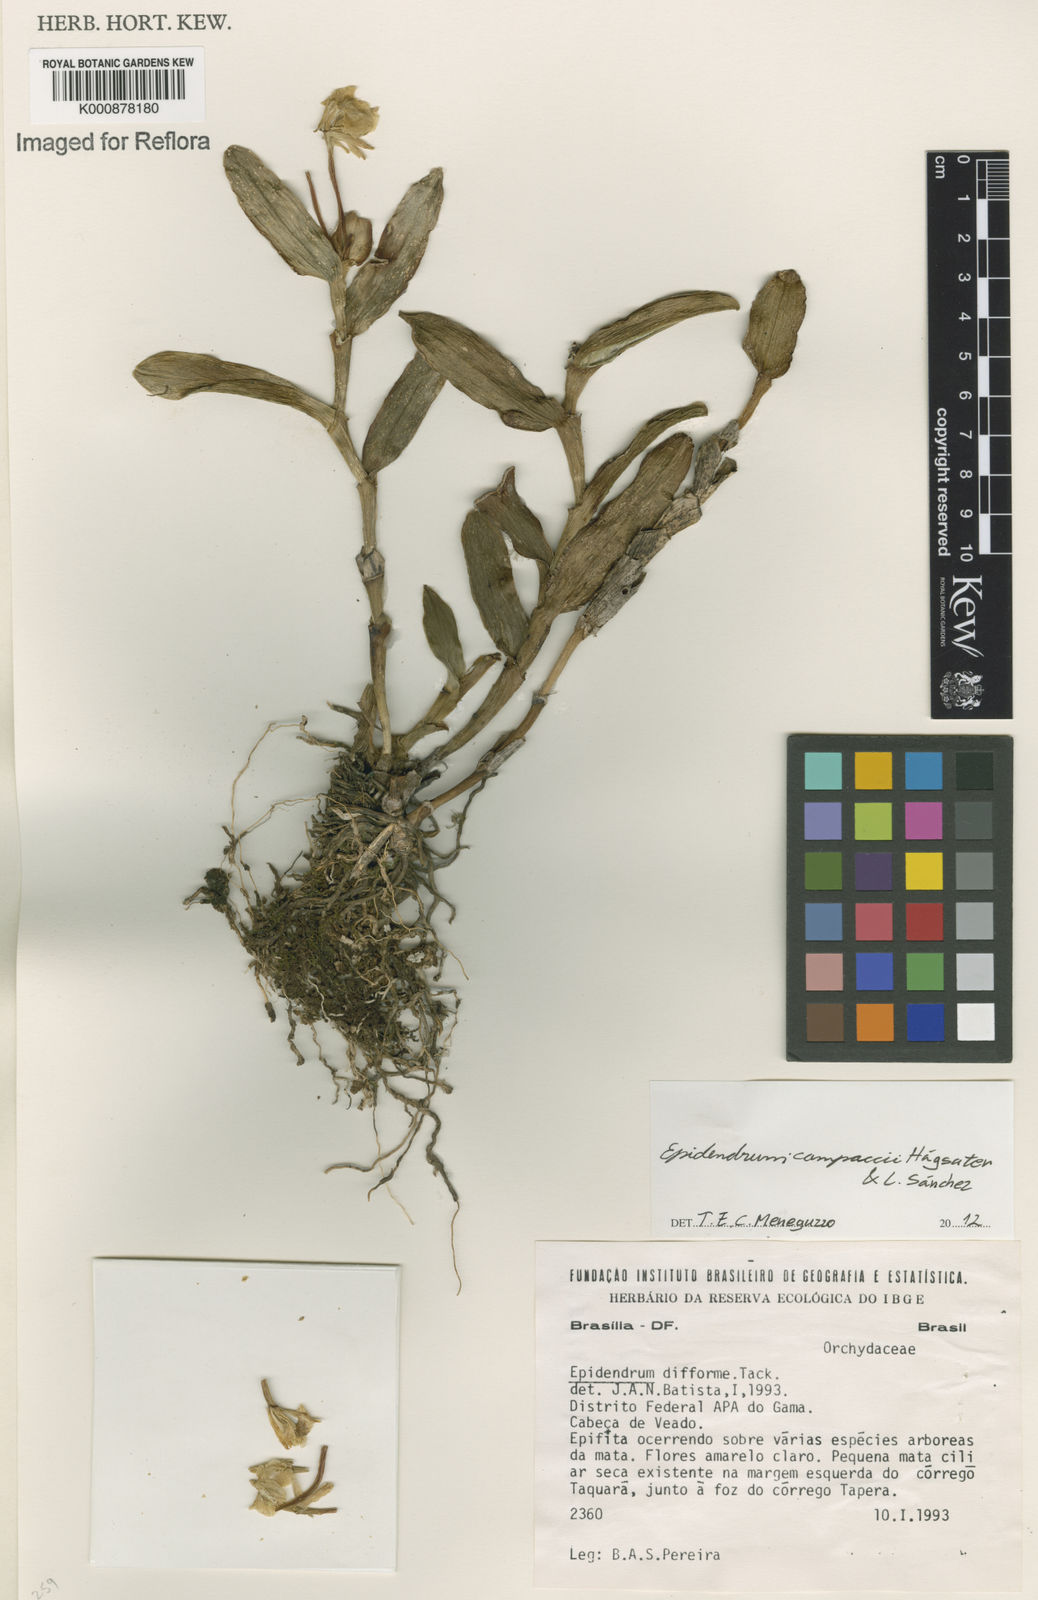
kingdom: Plantae
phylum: Tracheophyta
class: Liliopsida
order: Asparagales
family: Orchidaceae
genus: Epidendrum
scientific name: Epidendrum
